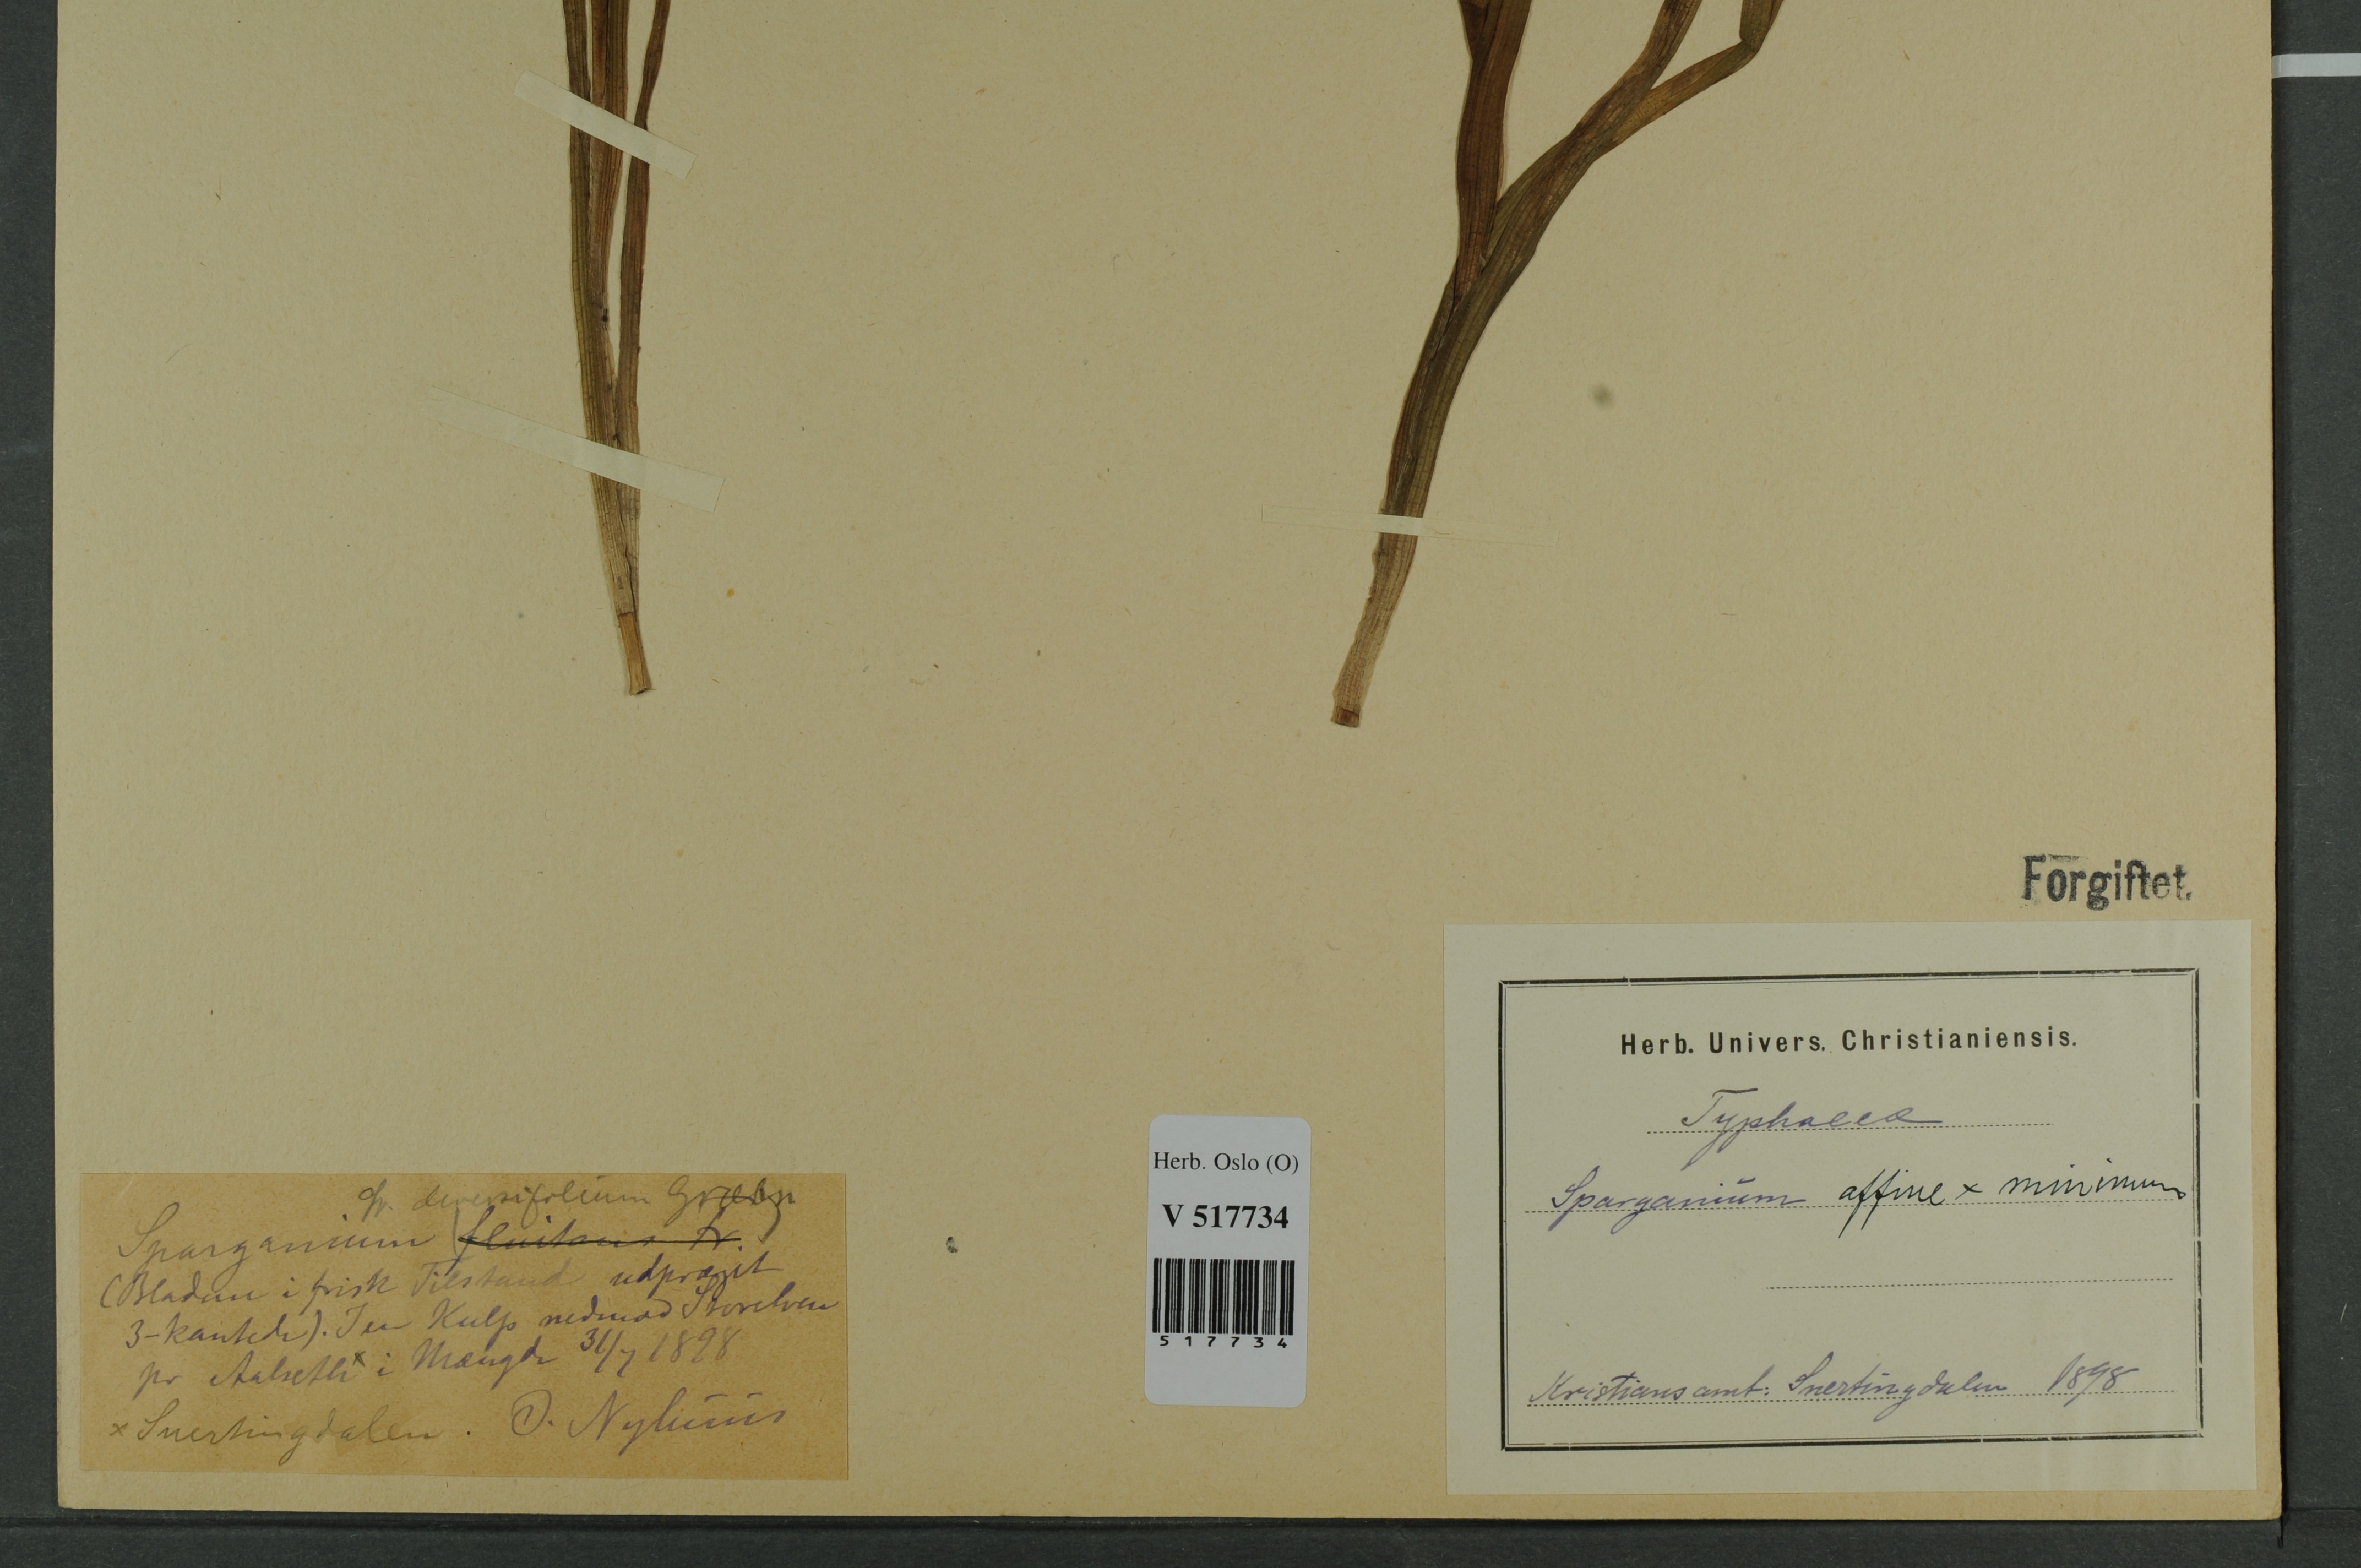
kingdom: Plantae
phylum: Tracheophyta
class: Liliopsida
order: Poales
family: Typhaceae
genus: Sparganium
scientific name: Sparganium
